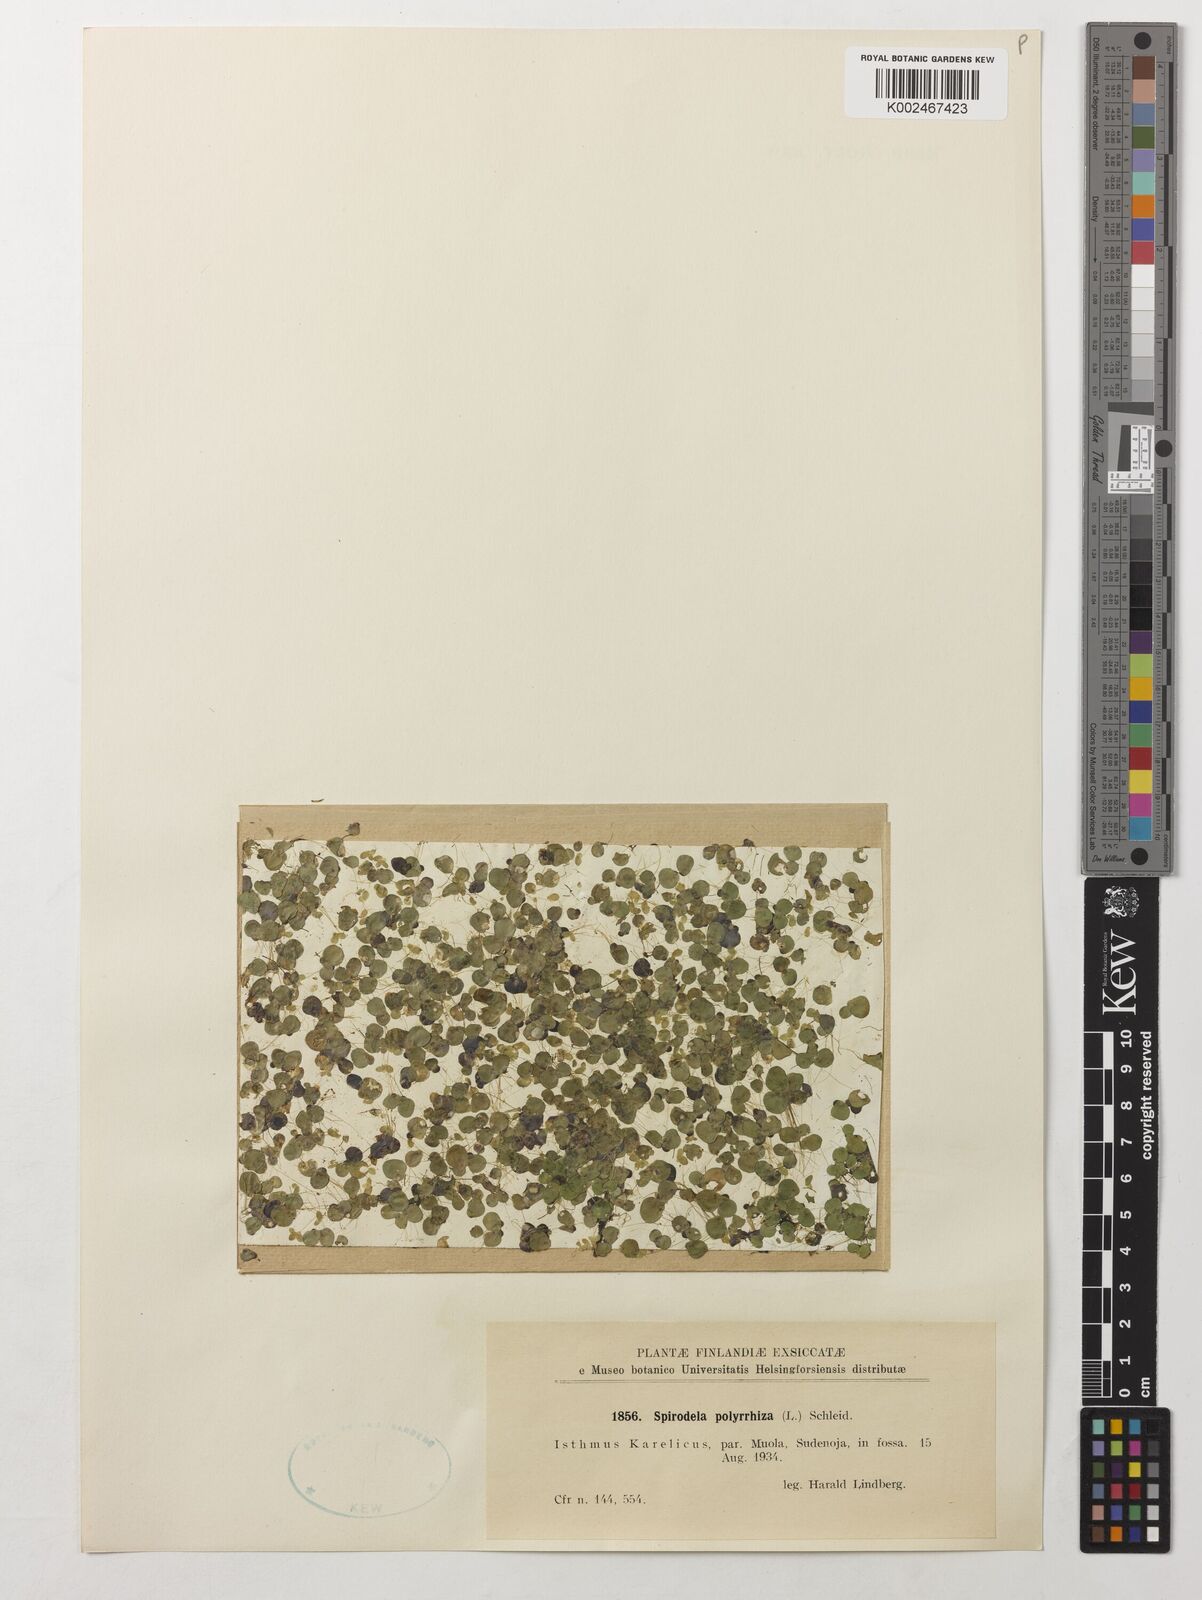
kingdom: Plantae
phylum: Tracheophyta
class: Liliopsida
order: Alismatales
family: Araceae
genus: Spirodela
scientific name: Spirodela polyrhiza
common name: Great duckweed
